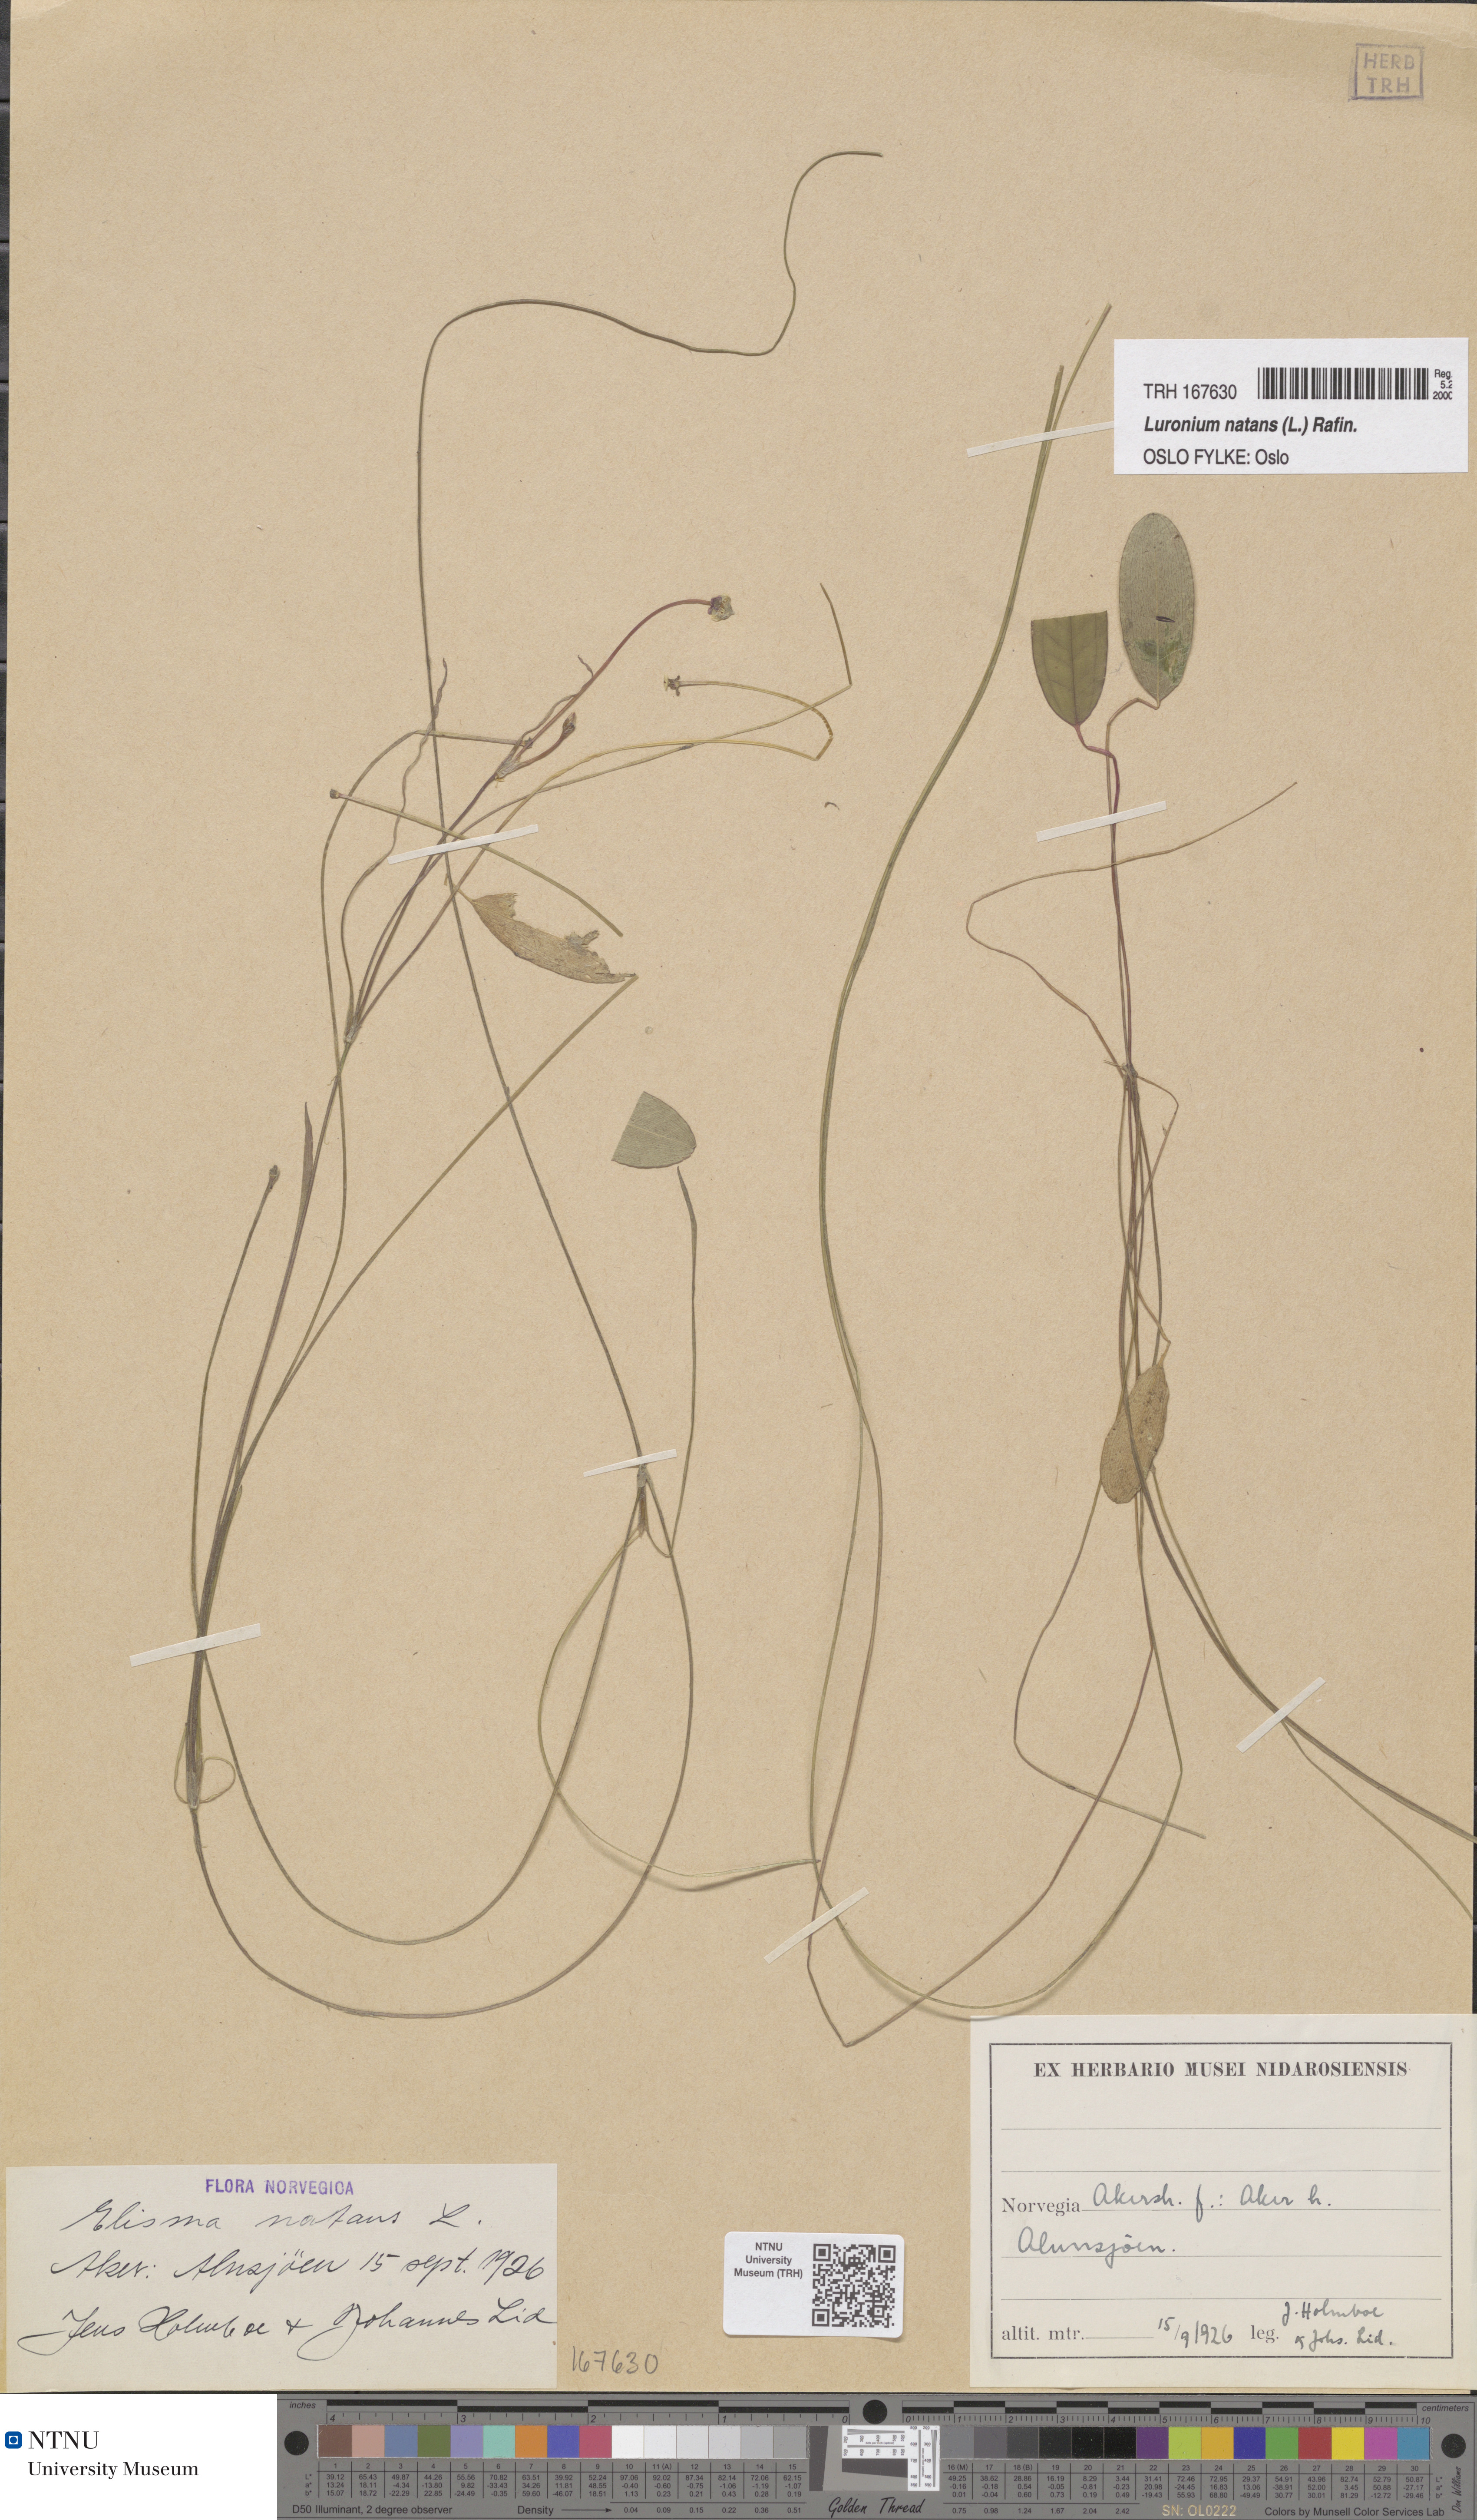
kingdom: Plantae
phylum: Tracheophyta
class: Liliopsida
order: Alismatales
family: Alismataceae
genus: Luronium
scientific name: Luronium natans
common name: Floating water-plantain
